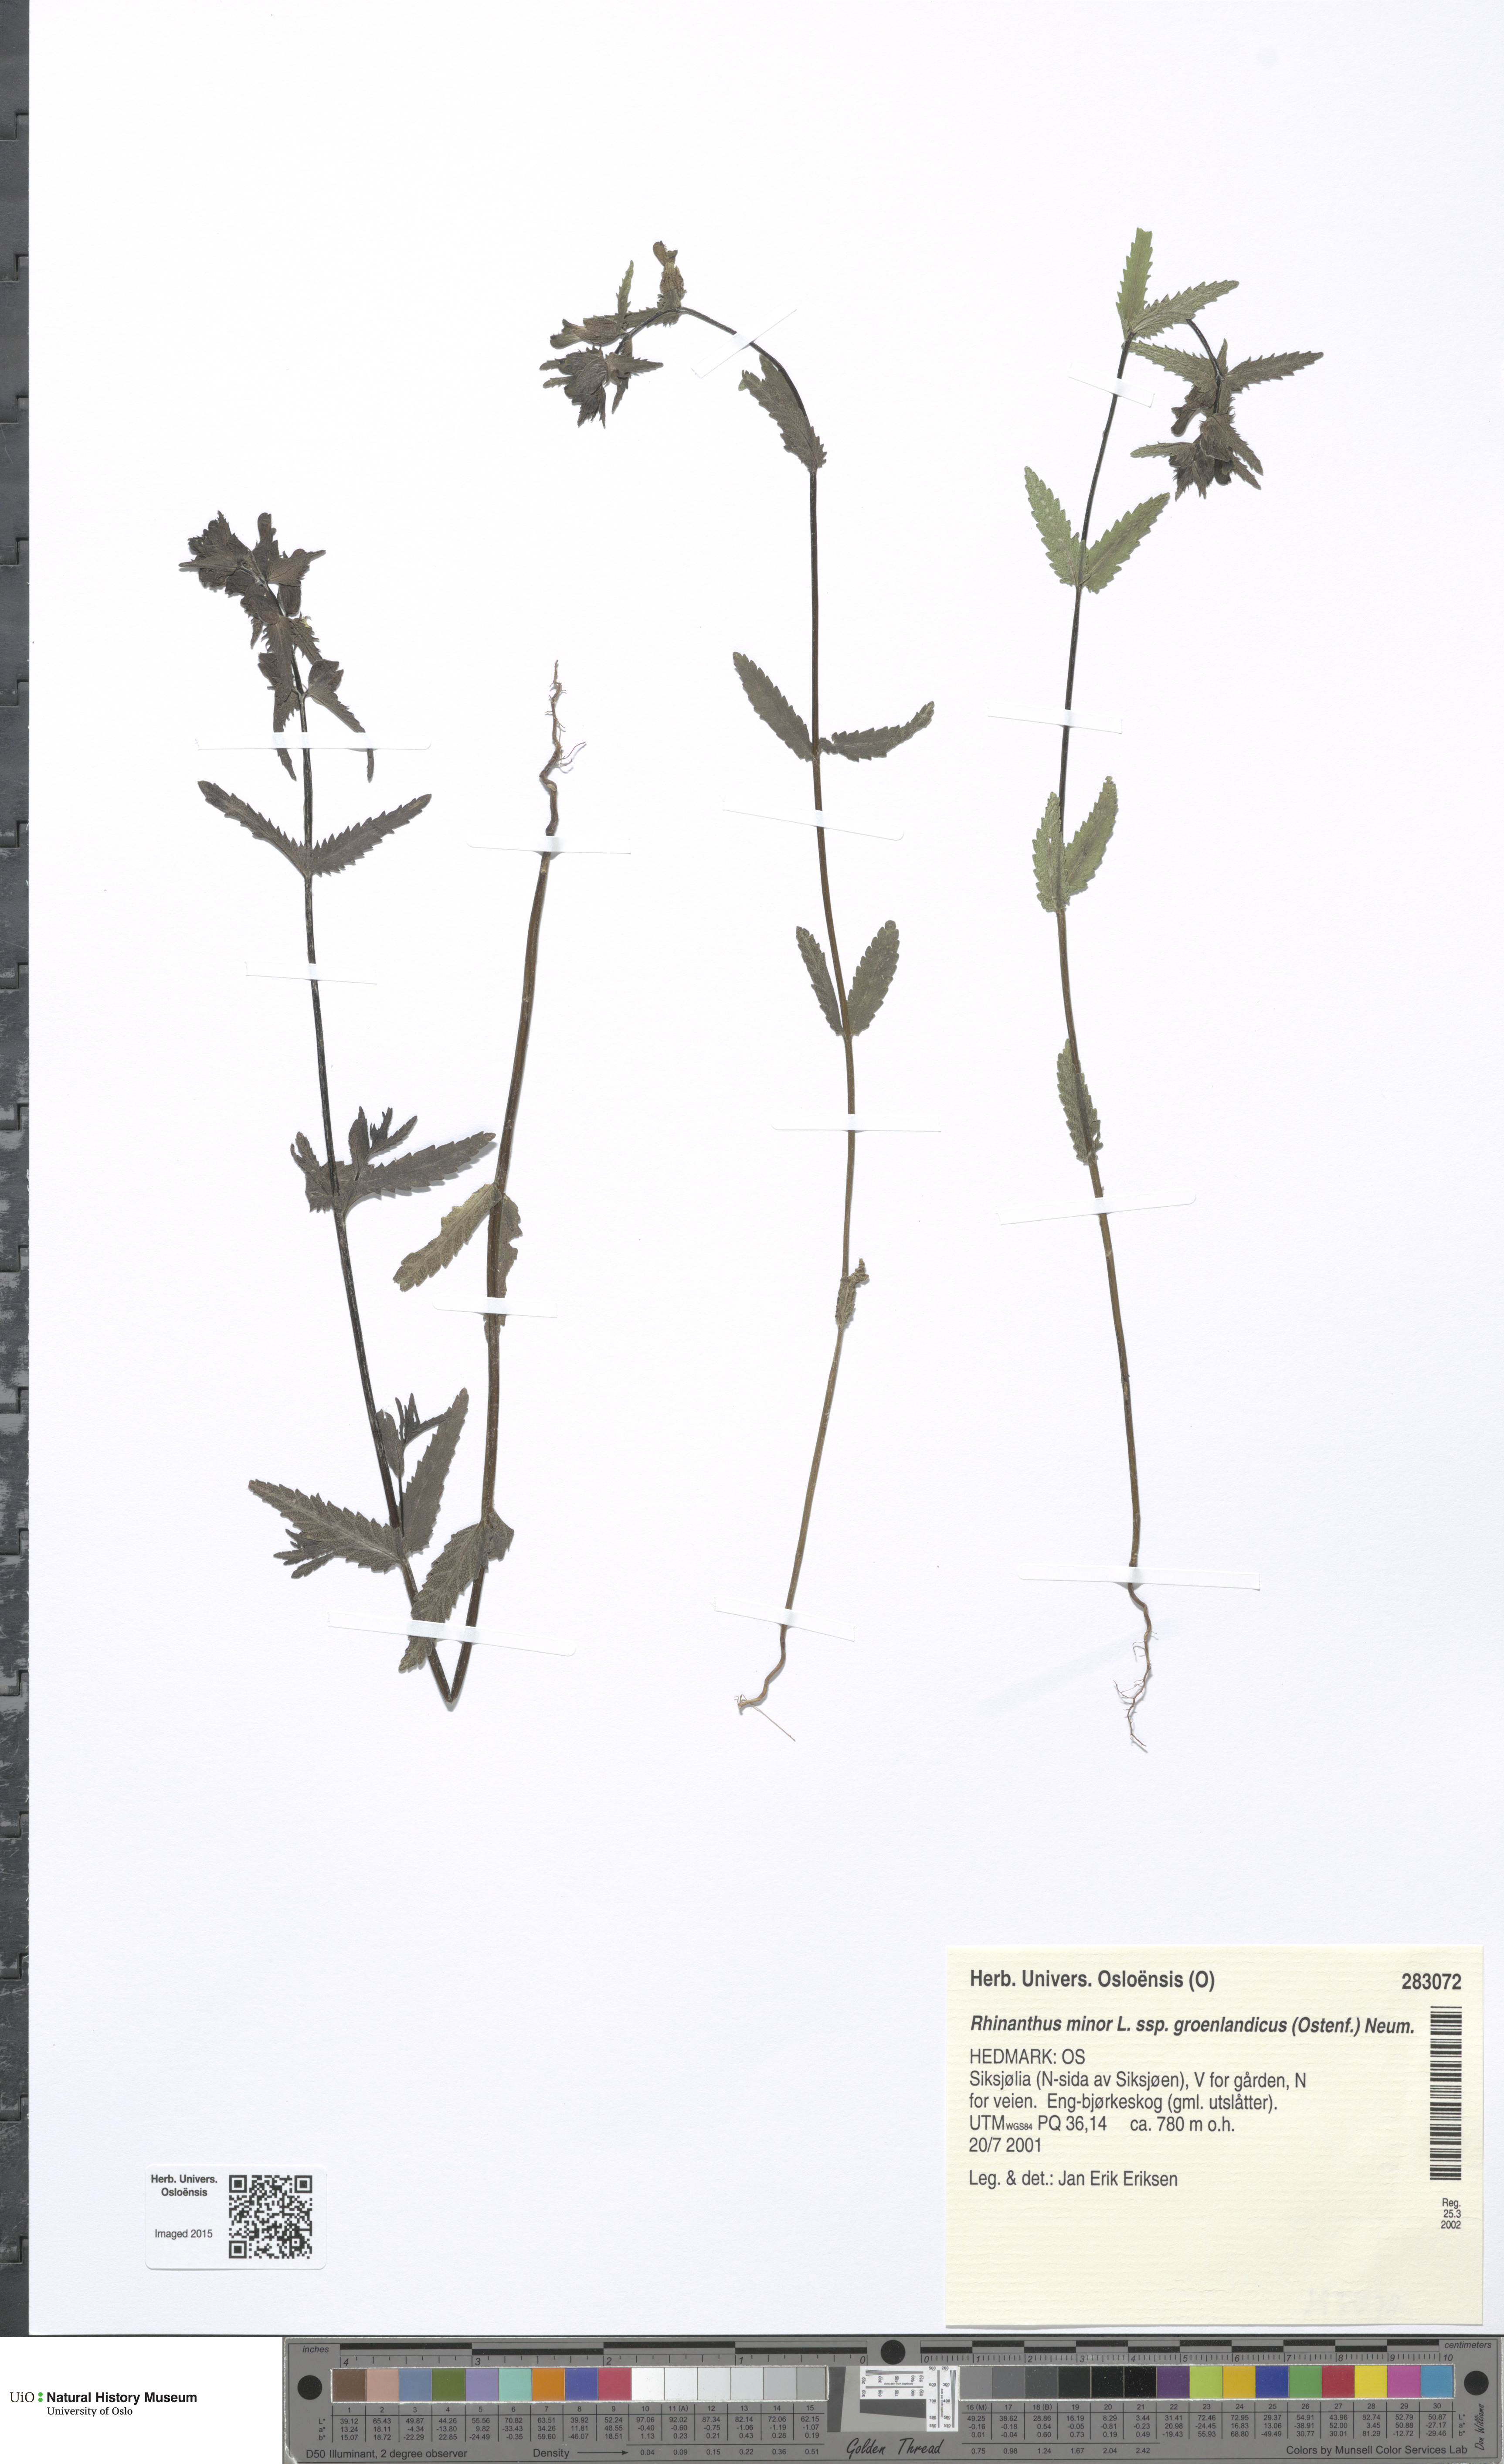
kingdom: Plantae
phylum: Tracheophyta
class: Magnoliopsida
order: Lamiales
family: Orobanchaceae
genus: Rhinanthus
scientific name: Rhinanthus groenlandicus
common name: Little yellow rattle
